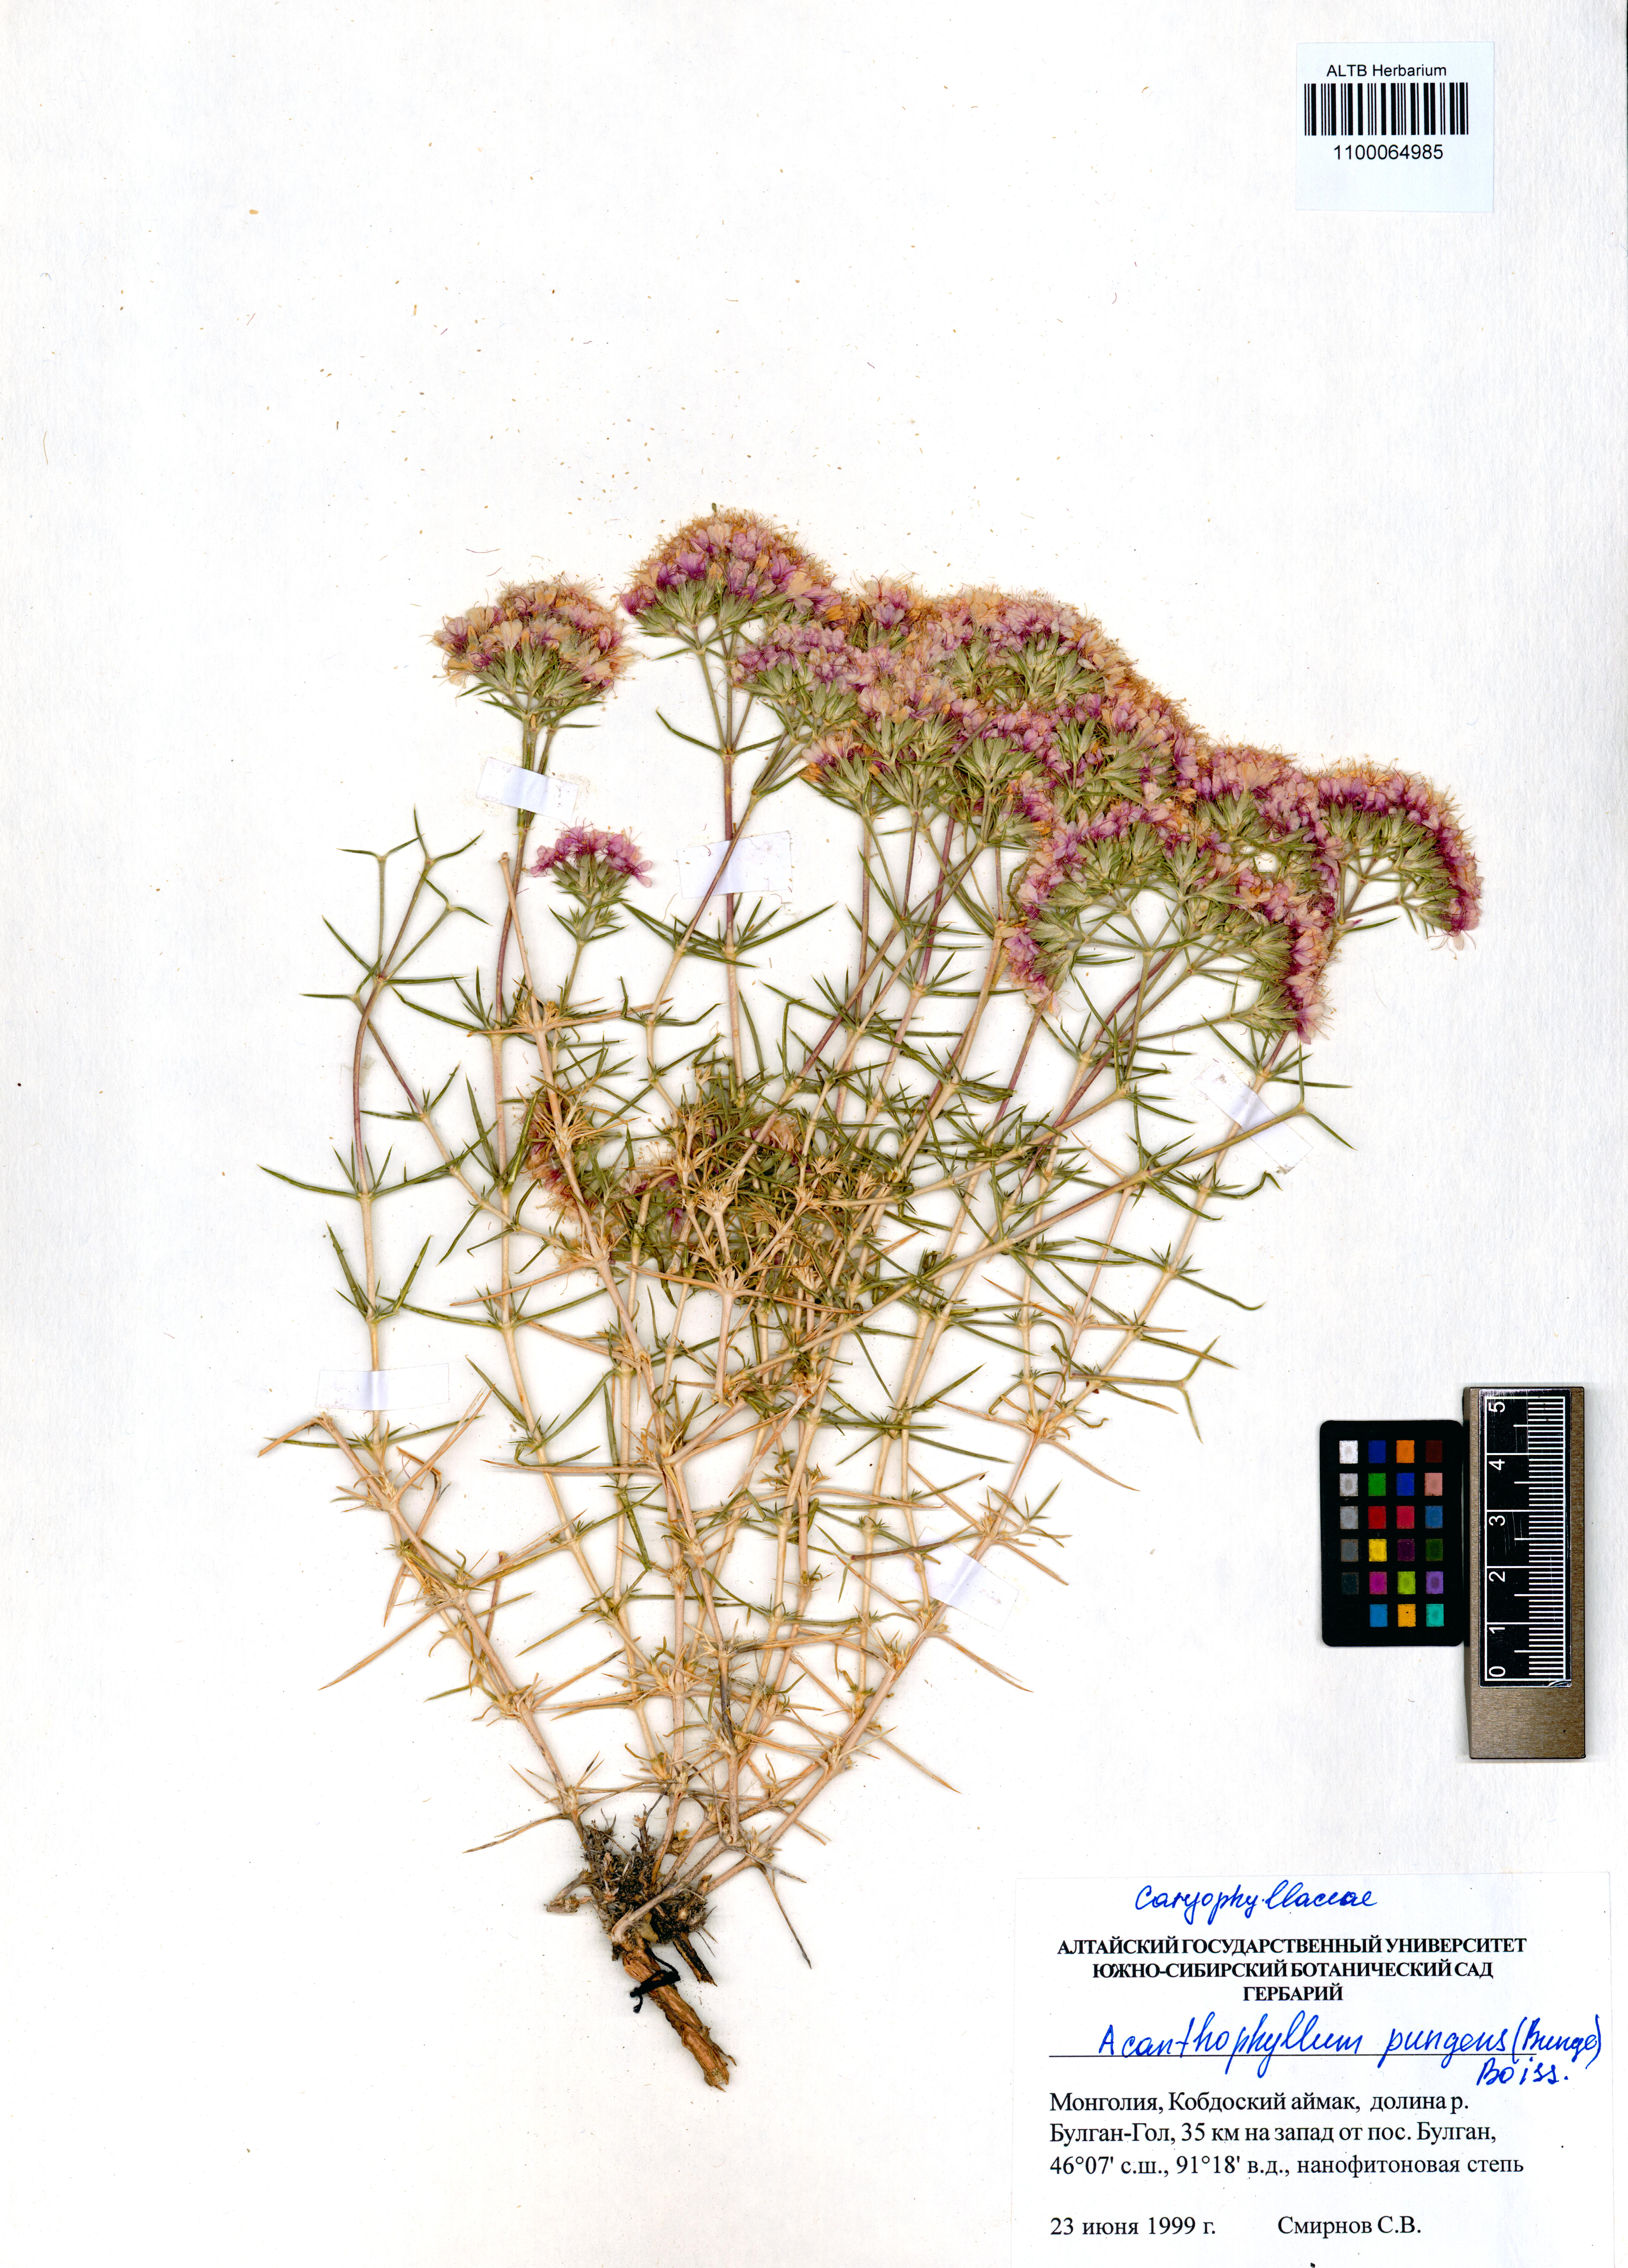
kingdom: Plantae
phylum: Tracheophyta
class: Magnoliopsida
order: Caryophyllales
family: Caryophyllaceae
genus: Acanthophyllum
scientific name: Acanthophyllum pungens
